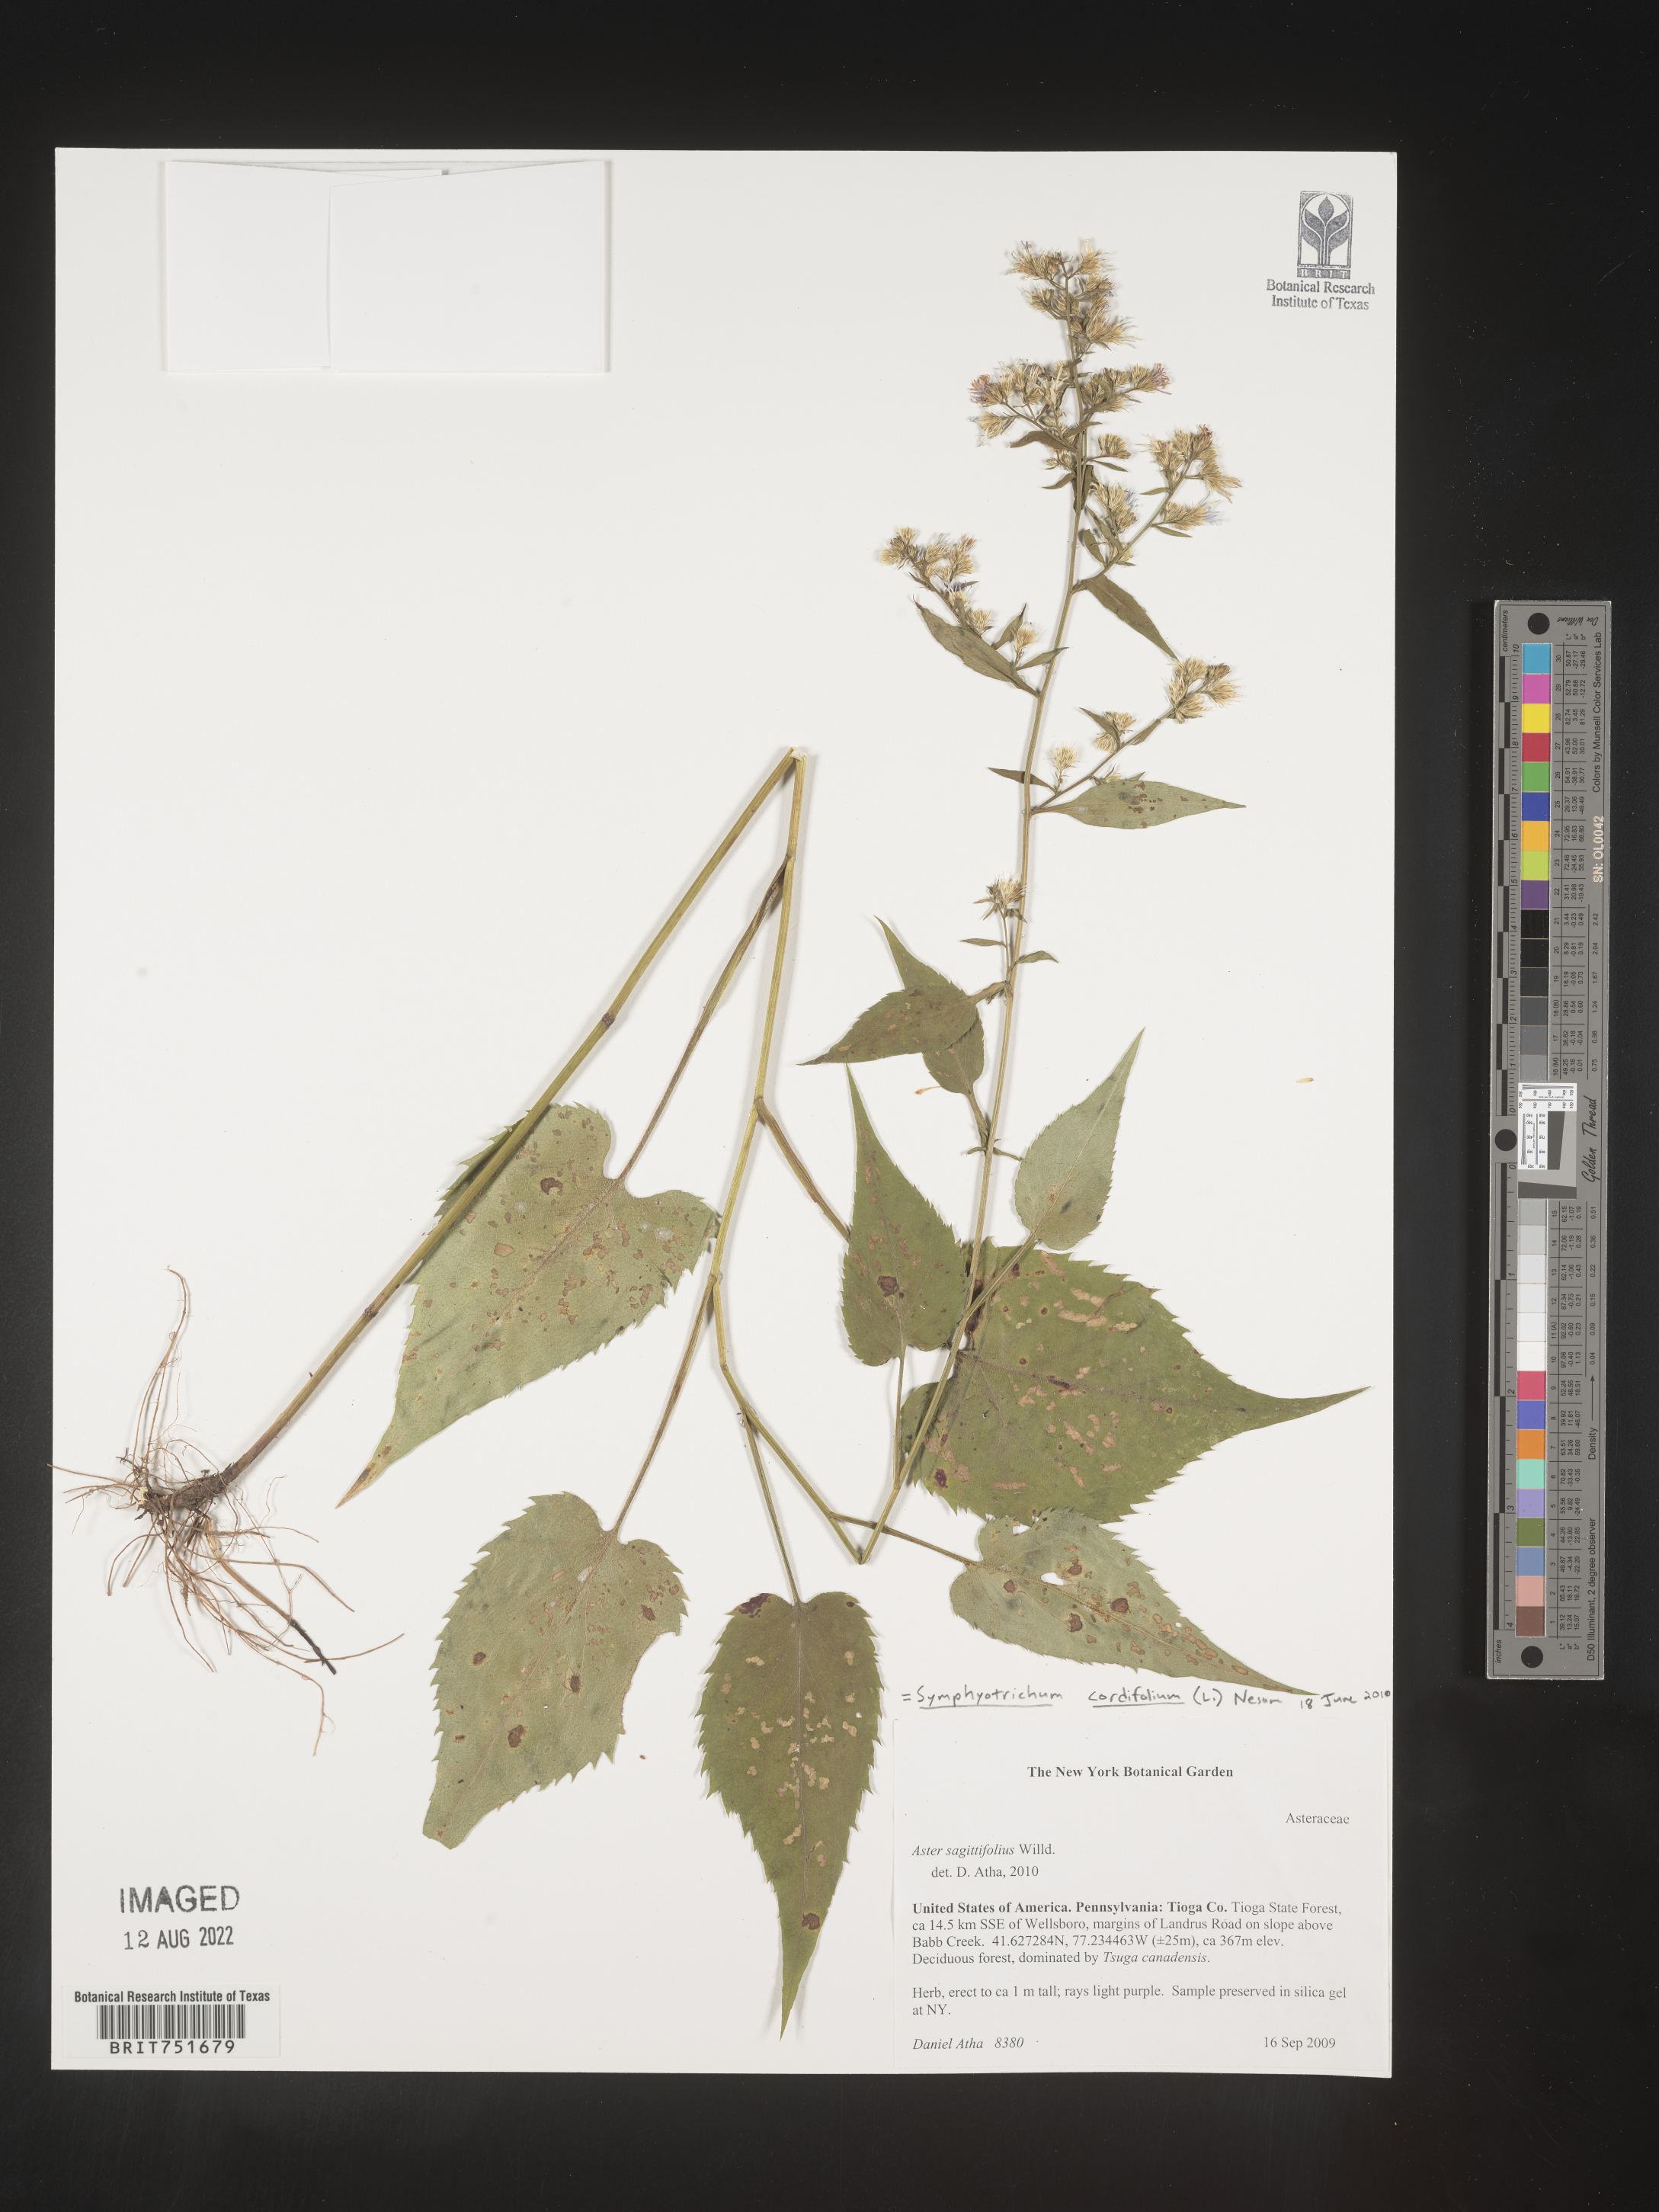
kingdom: Plantae
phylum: Tracheophyta
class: Magnoliopsida
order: Asterales
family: Asteraceae
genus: Symphyotrichum
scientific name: Symphyotrichum cordifolium
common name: Beeweed
